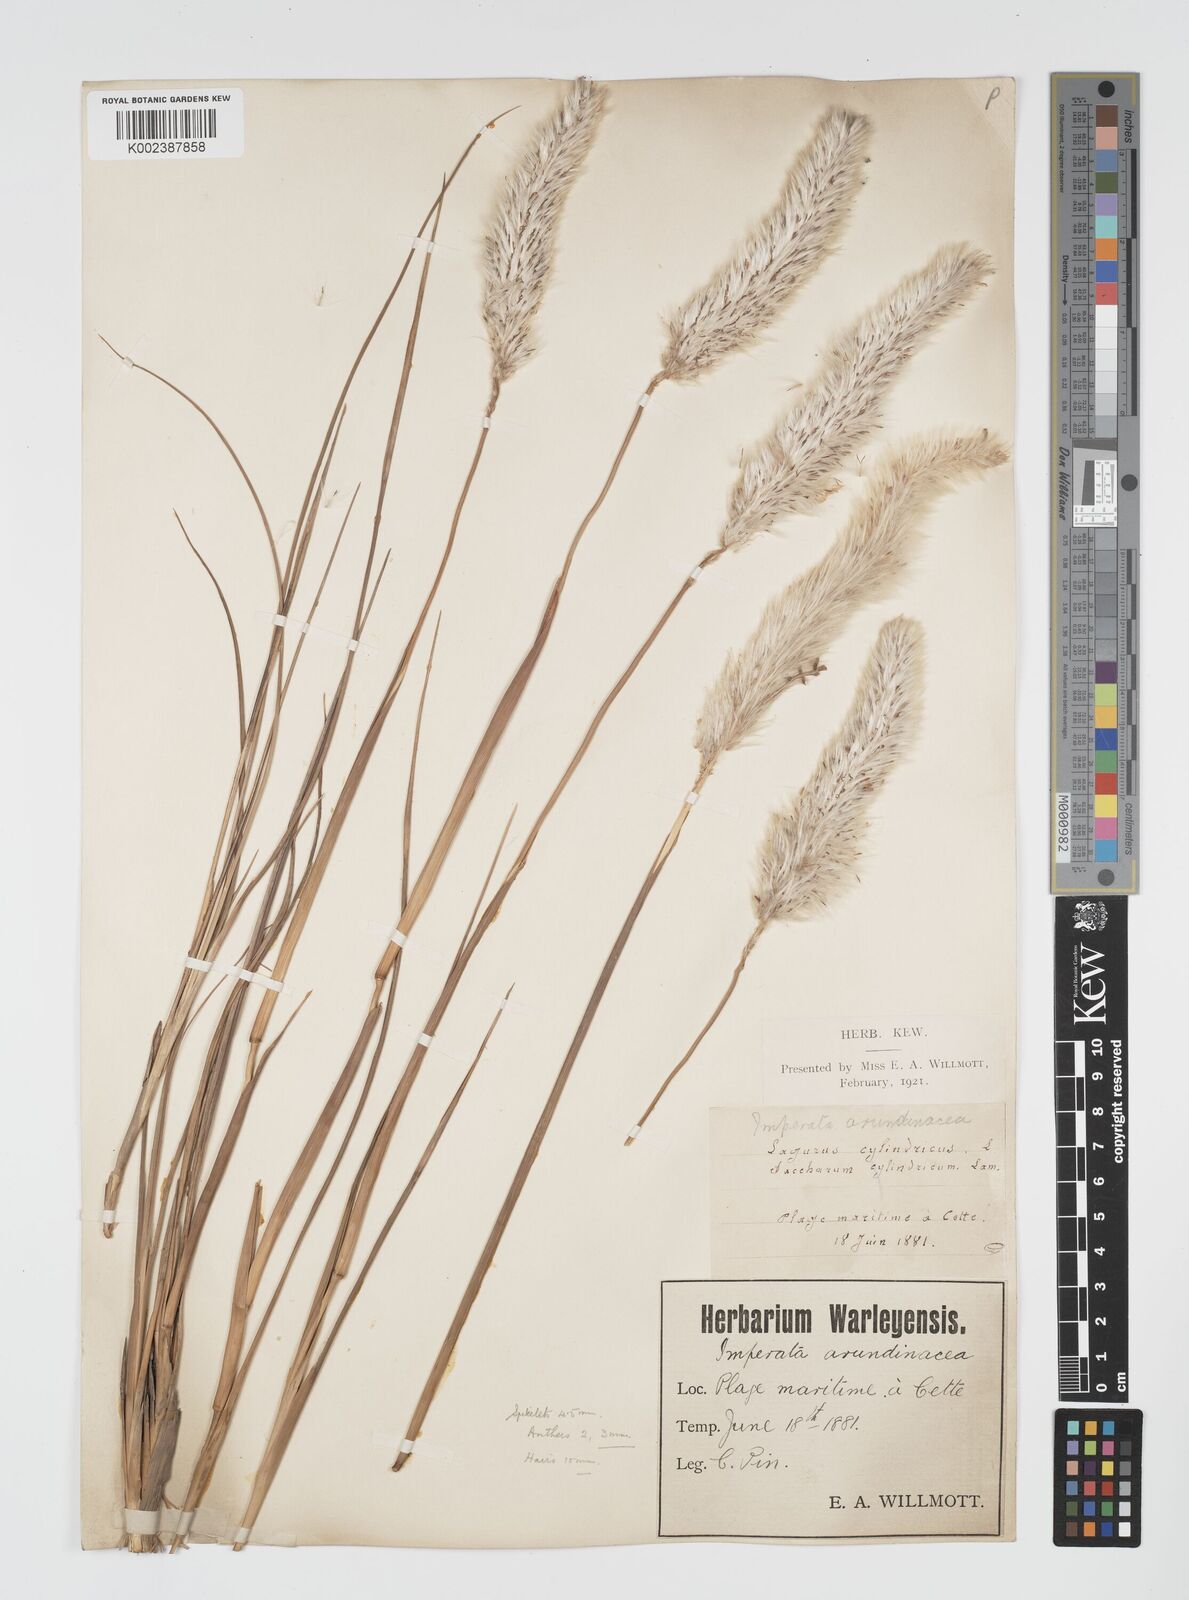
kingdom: Plantae
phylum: Tracheophyta
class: Liliopsida
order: Poales
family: Poaceae
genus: Imperata
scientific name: Imperata cylindrica
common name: Cogongrass
